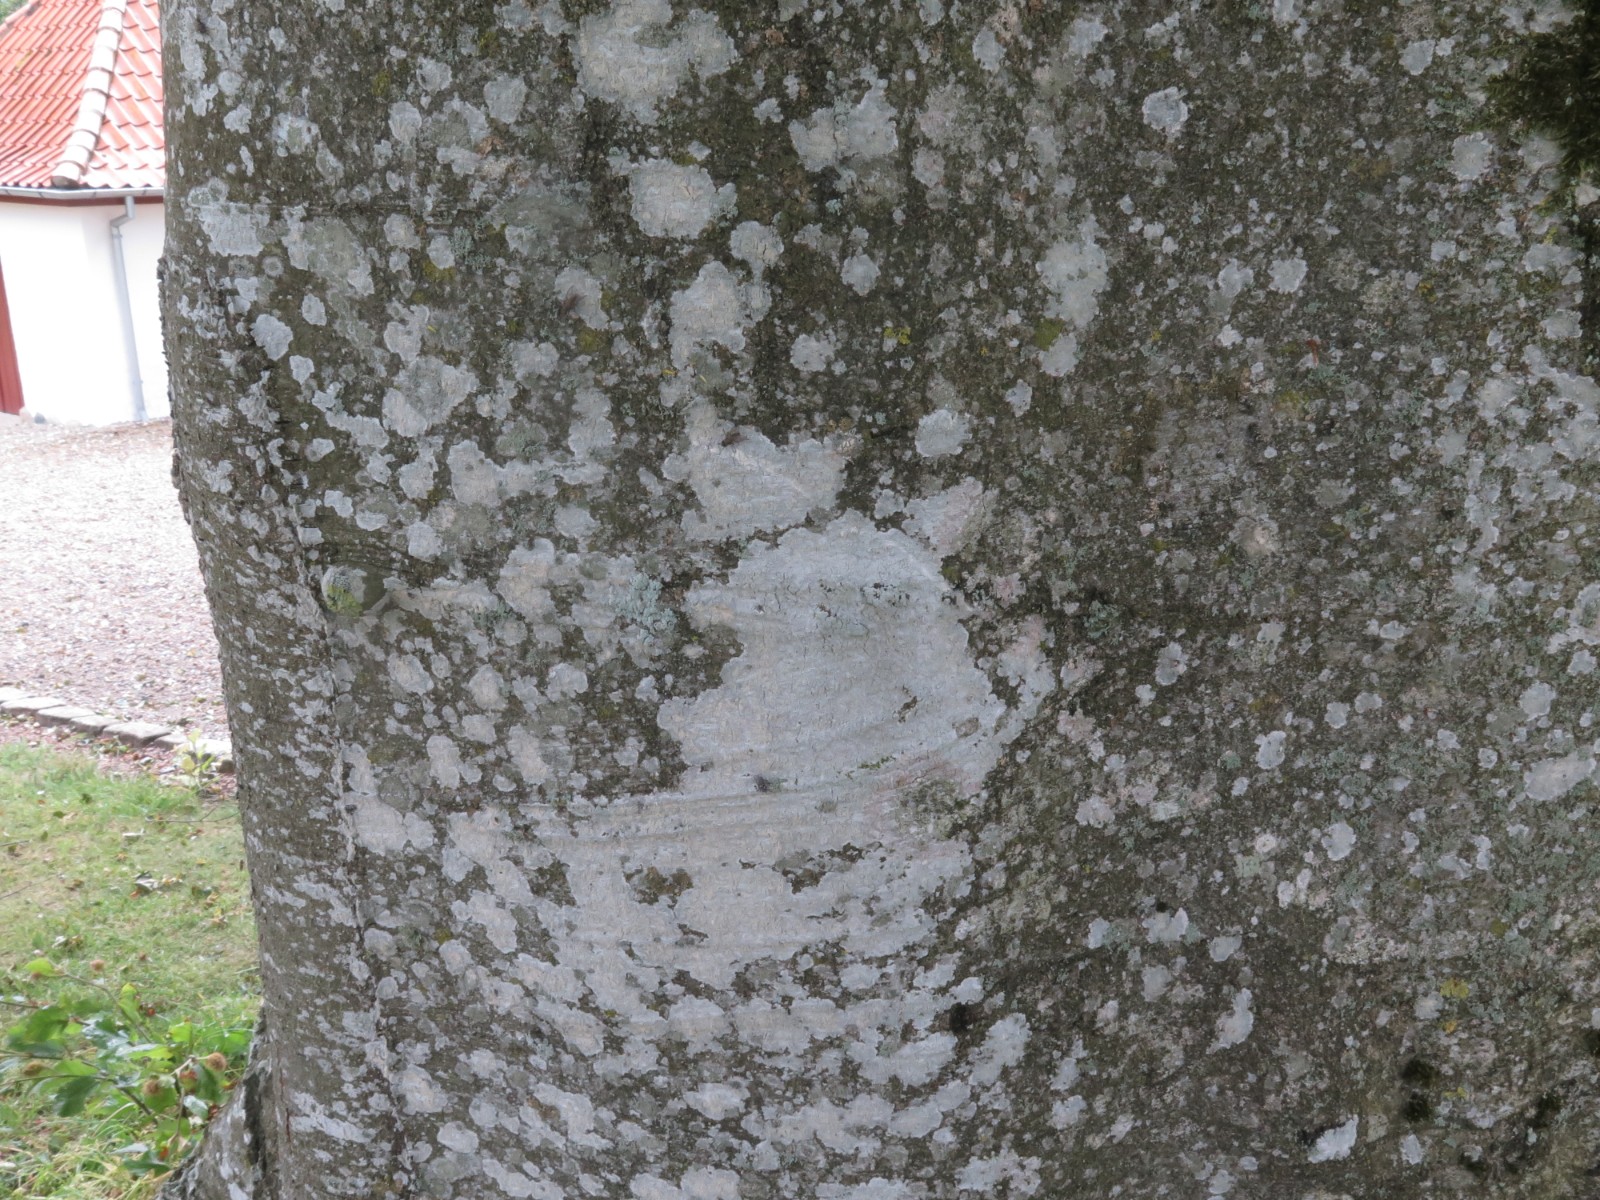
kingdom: Fungi
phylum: Ascomycota
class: Lecanoromycetes
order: Ostropales
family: Phlyctidaceae
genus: Phlyctis
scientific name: Phlyctis argena
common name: almindelig sølvlav
